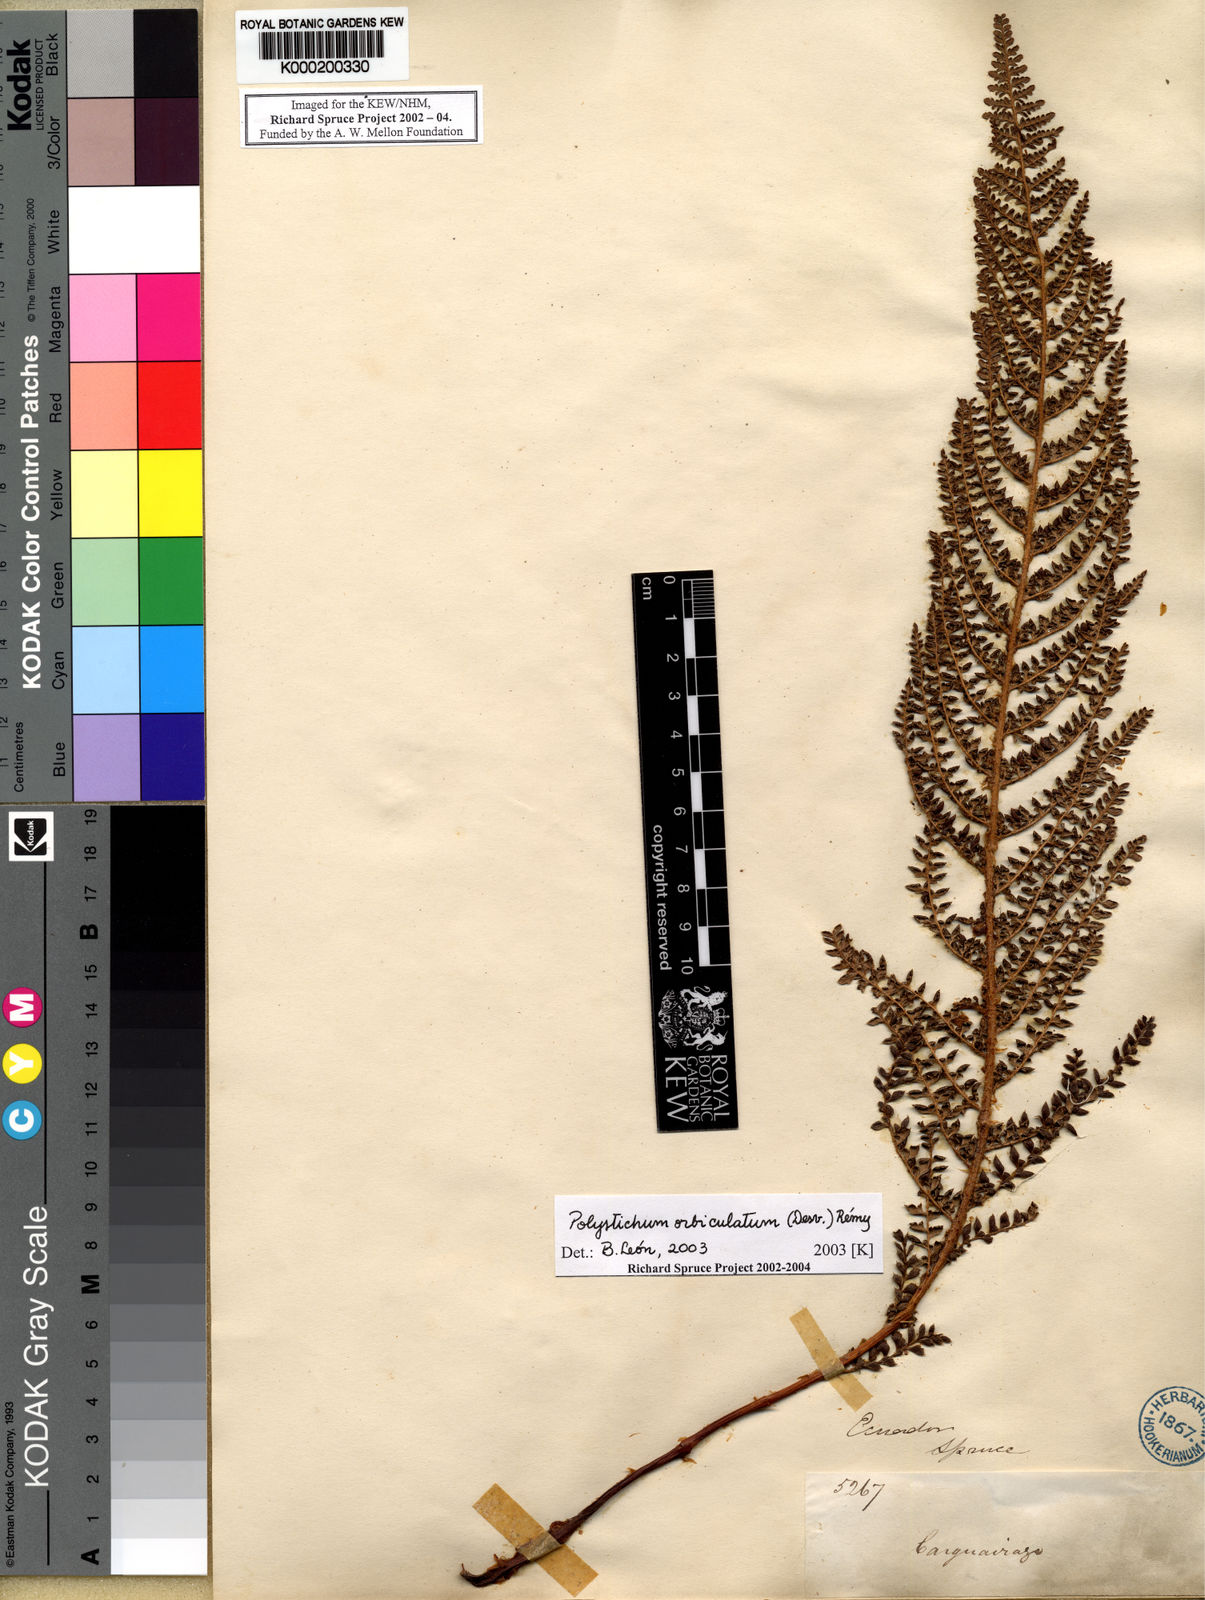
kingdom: Plantae
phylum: Tracheophyta
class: Polypodiopsida
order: Polypodiales
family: Dryopteridaceae
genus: Polystichum
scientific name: Polystichum
